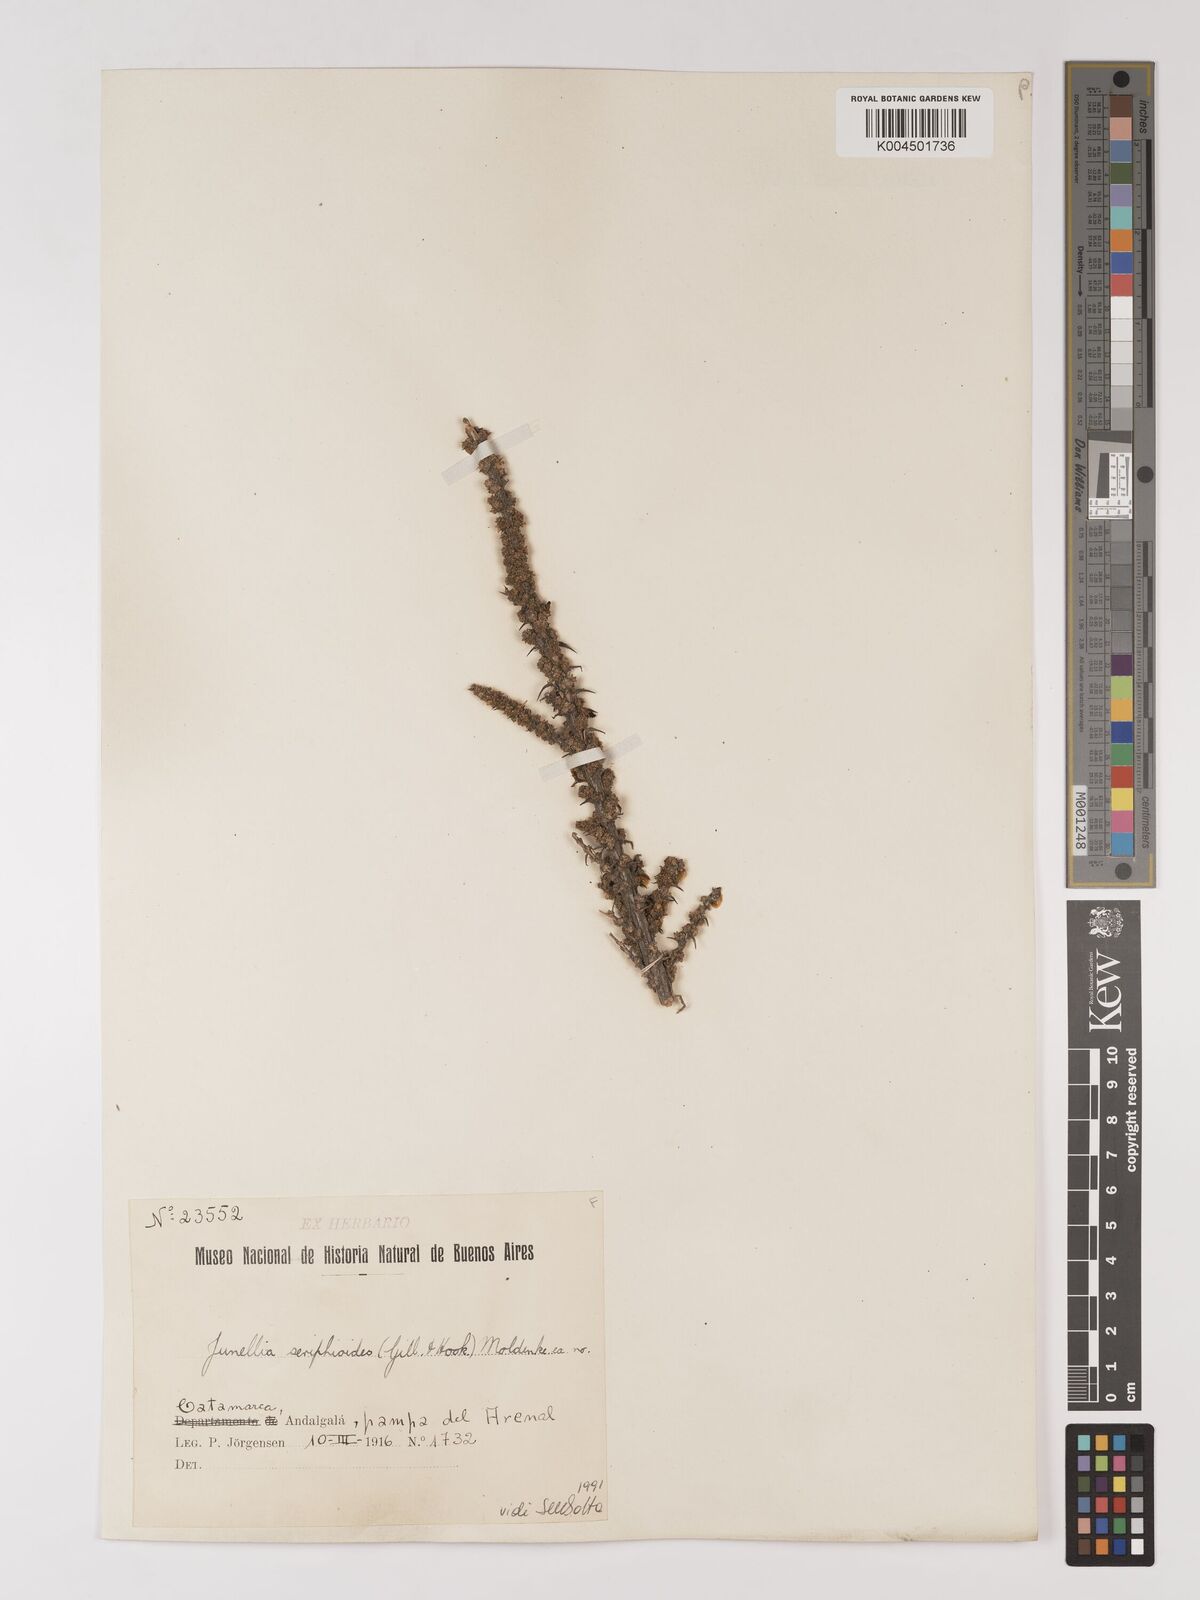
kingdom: Plantae
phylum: Tracheophyta
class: Magnoliopsida
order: Lamiales
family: Verbenaceae
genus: Junellia
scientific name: Junellia seriphioides
